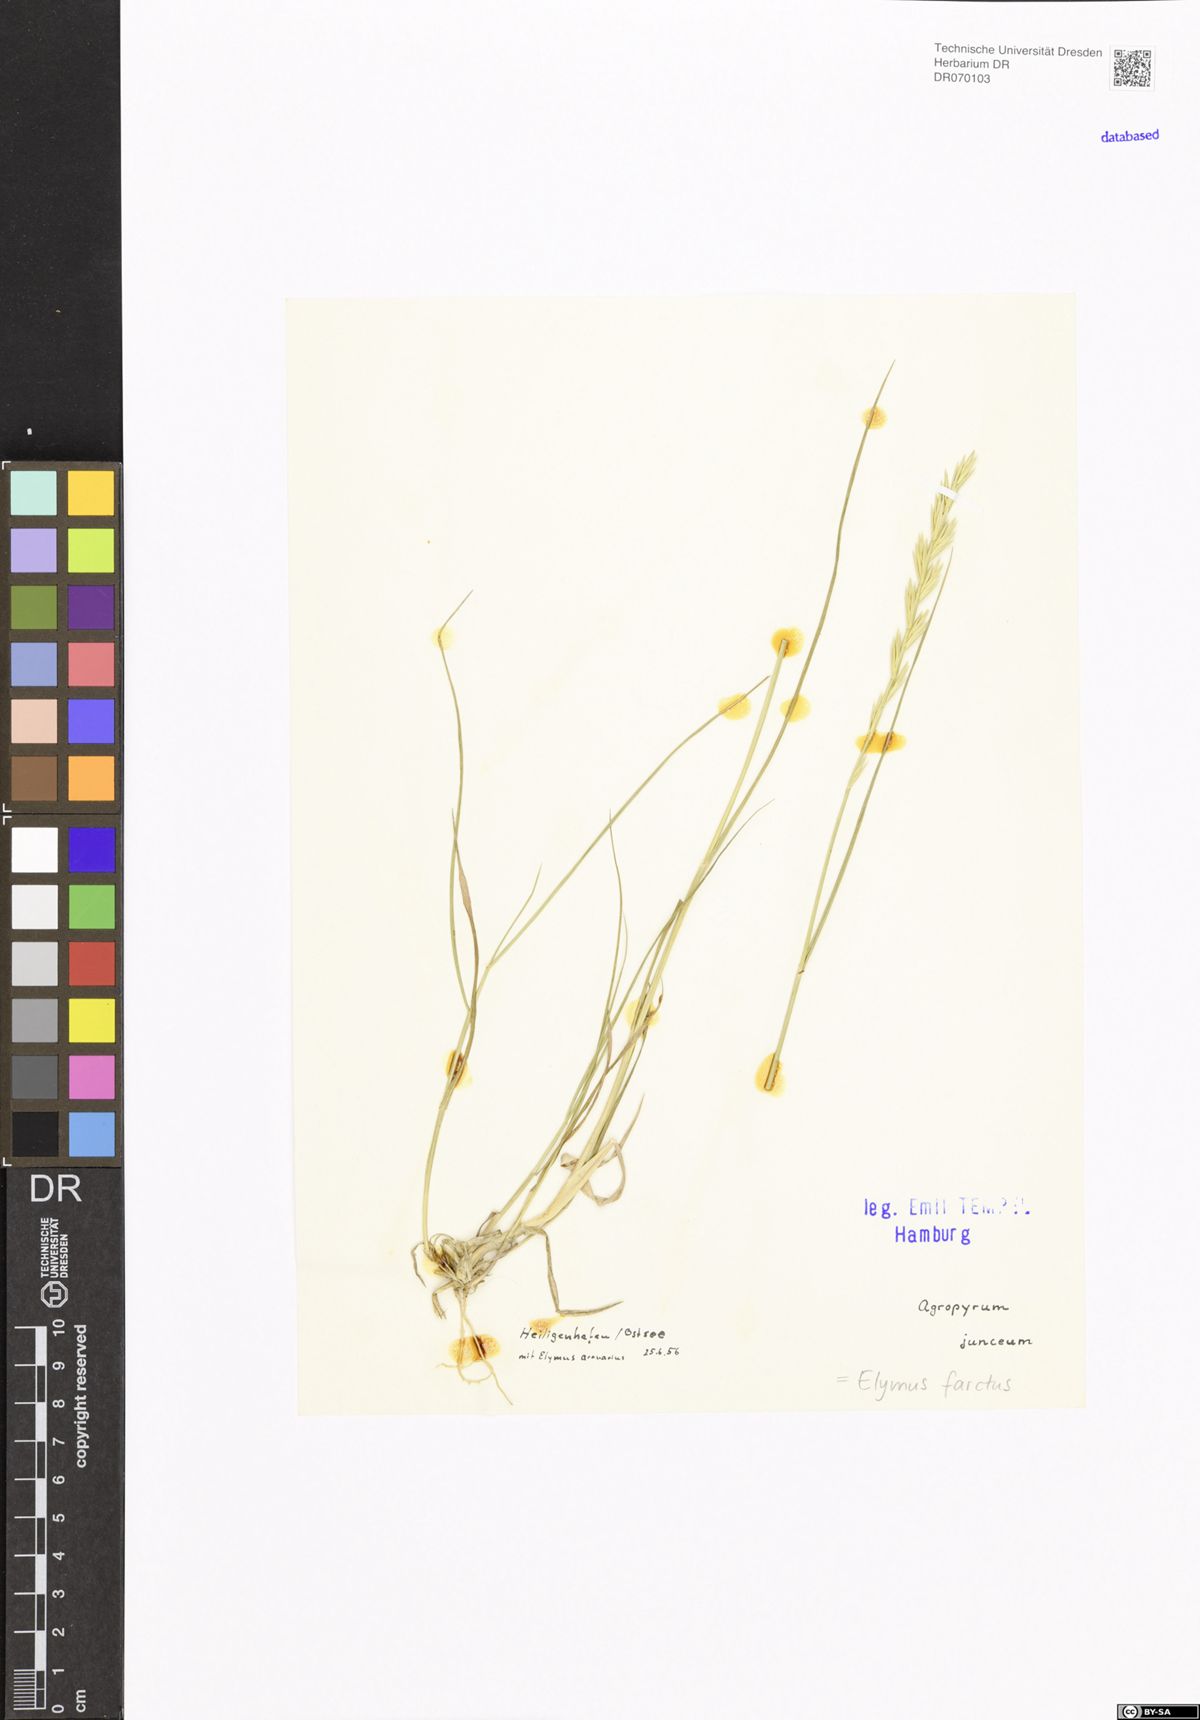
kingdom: Plantae
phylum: Tracheophyta
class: Liliopsida
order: Poales
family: Poaceae
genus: Thinopyrum
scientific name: Thinopyrum junceum
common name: Russian wheatgrass
